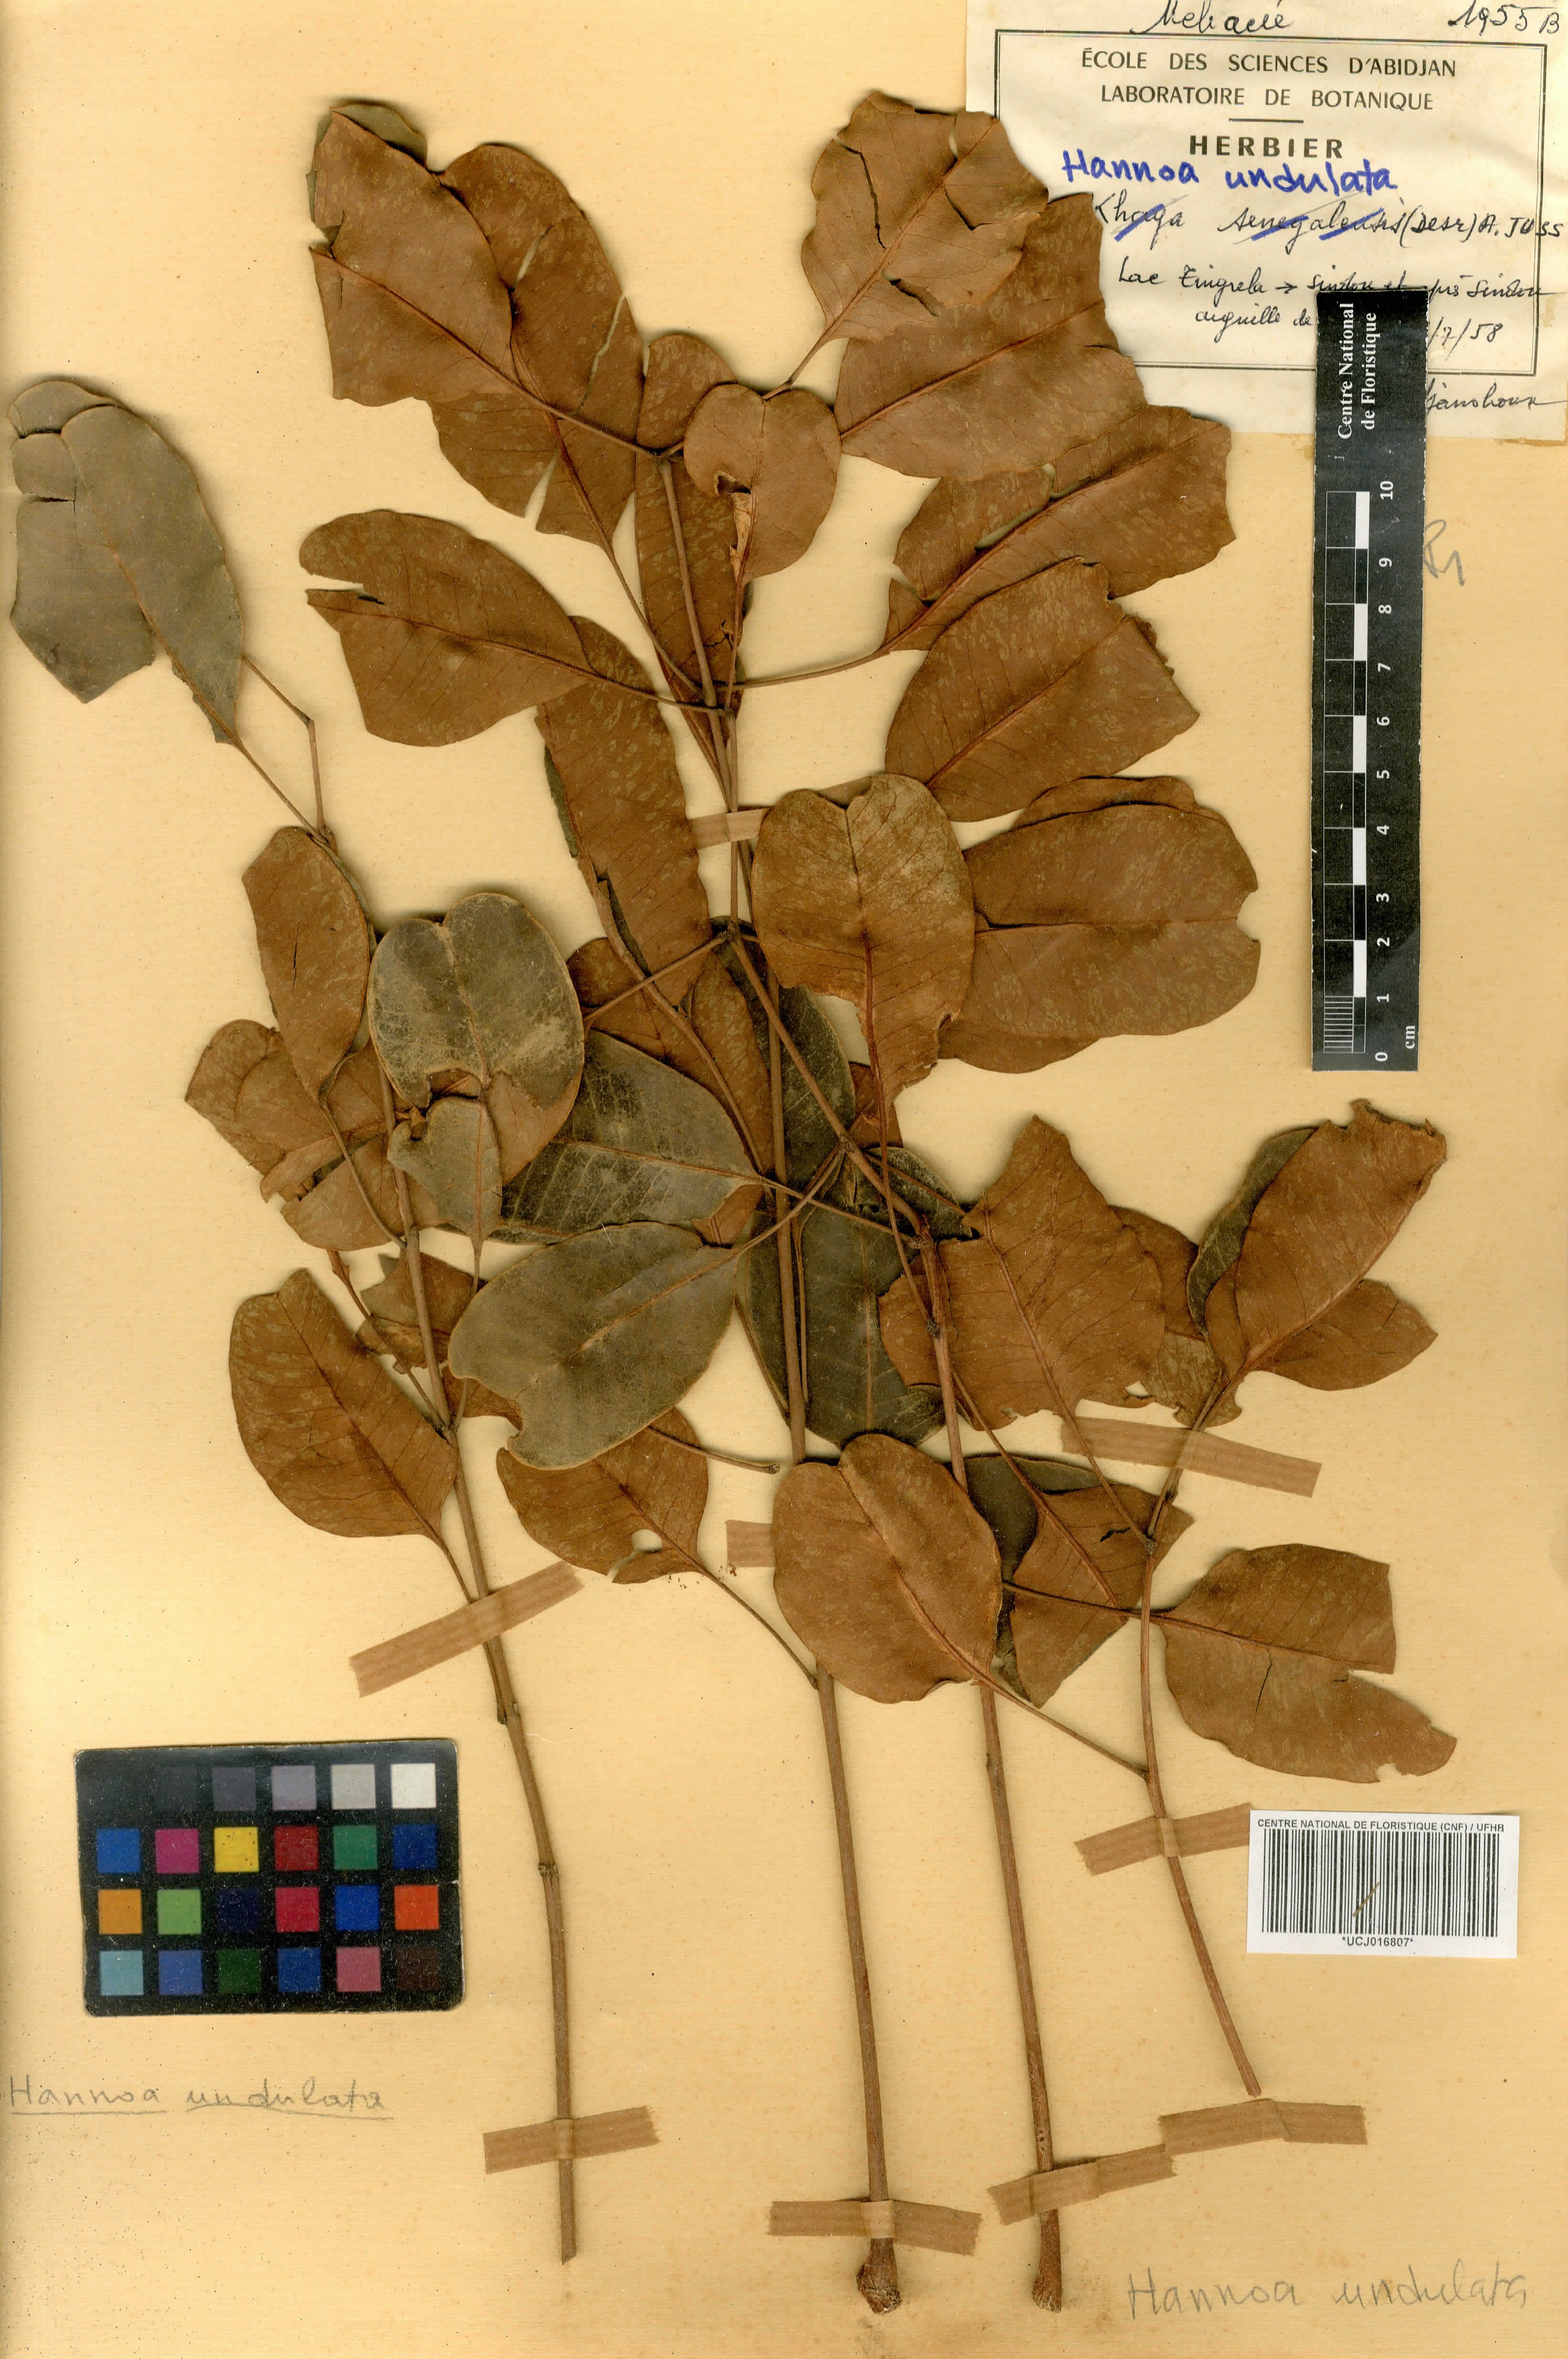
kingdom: Plantae
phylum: Tracheophyta
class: Magnoliopsida
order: Sapindales
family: Simaroubaceae
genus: Odyendyea
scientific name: Odyendyea klaineana
